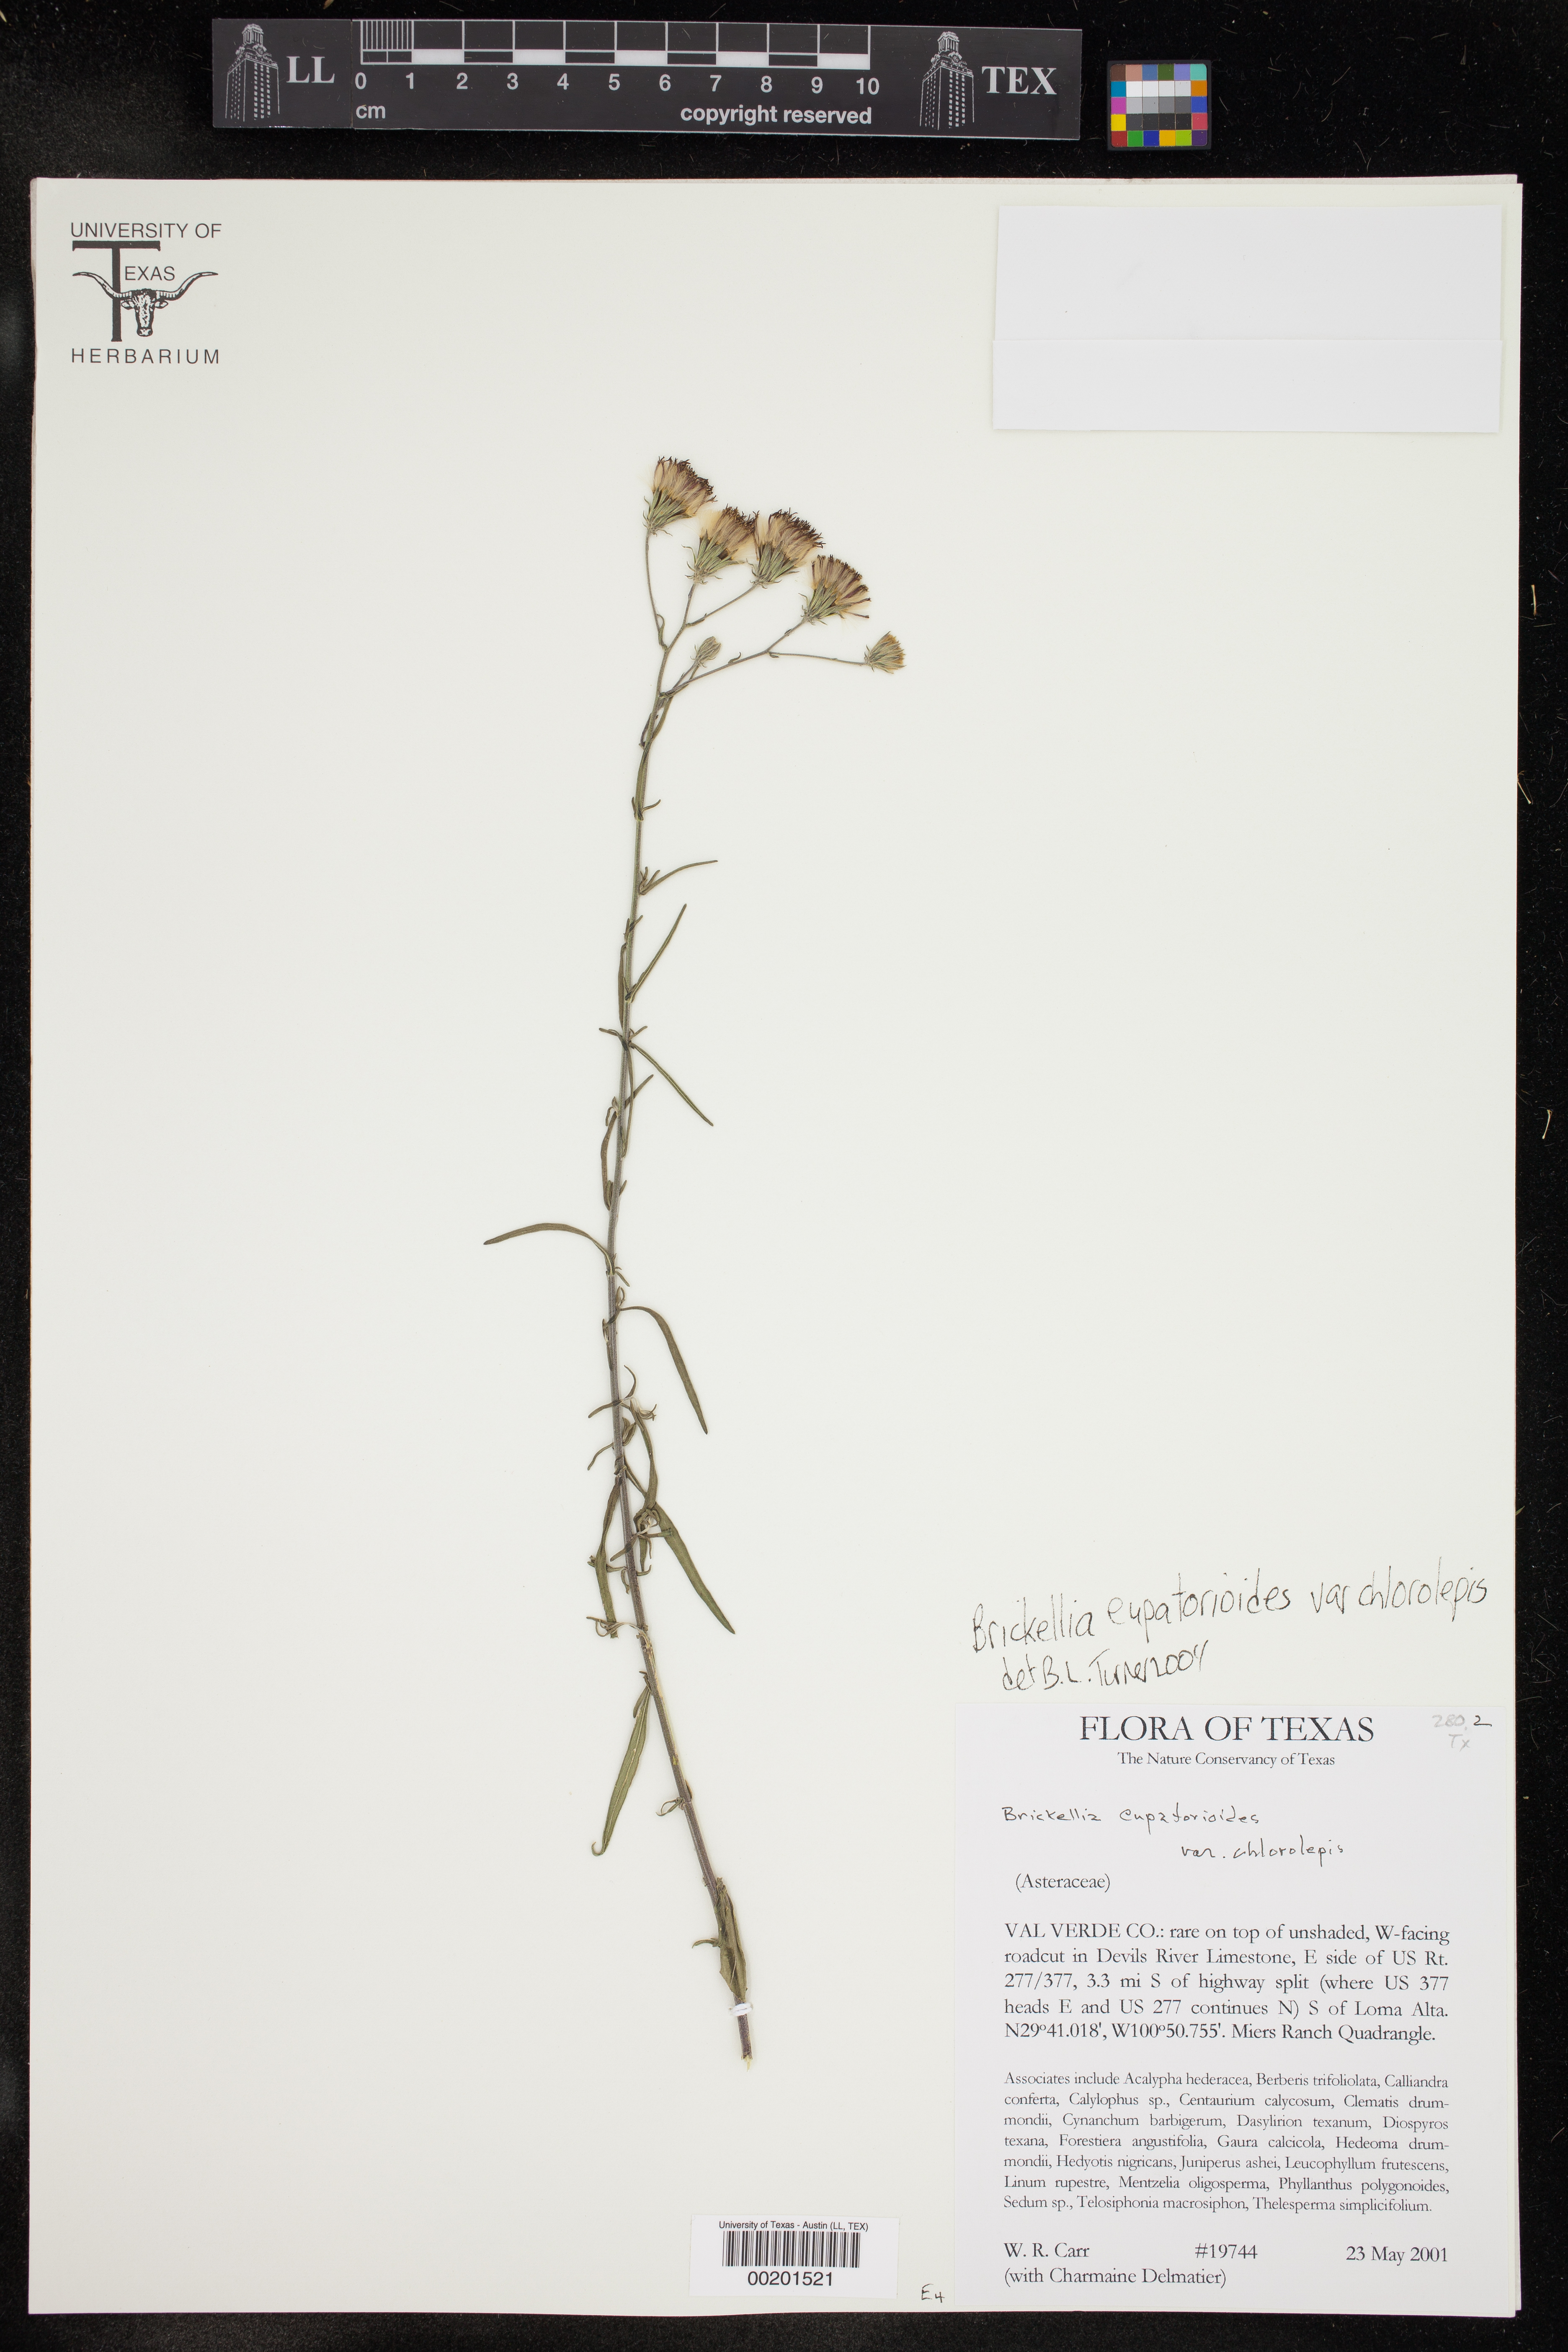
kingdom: Plantae
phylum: Tracheophyta
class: Magnoliopsida
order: Asterales
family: Asteraceae
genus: Brickellia
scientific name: Brickellia leptophylla
